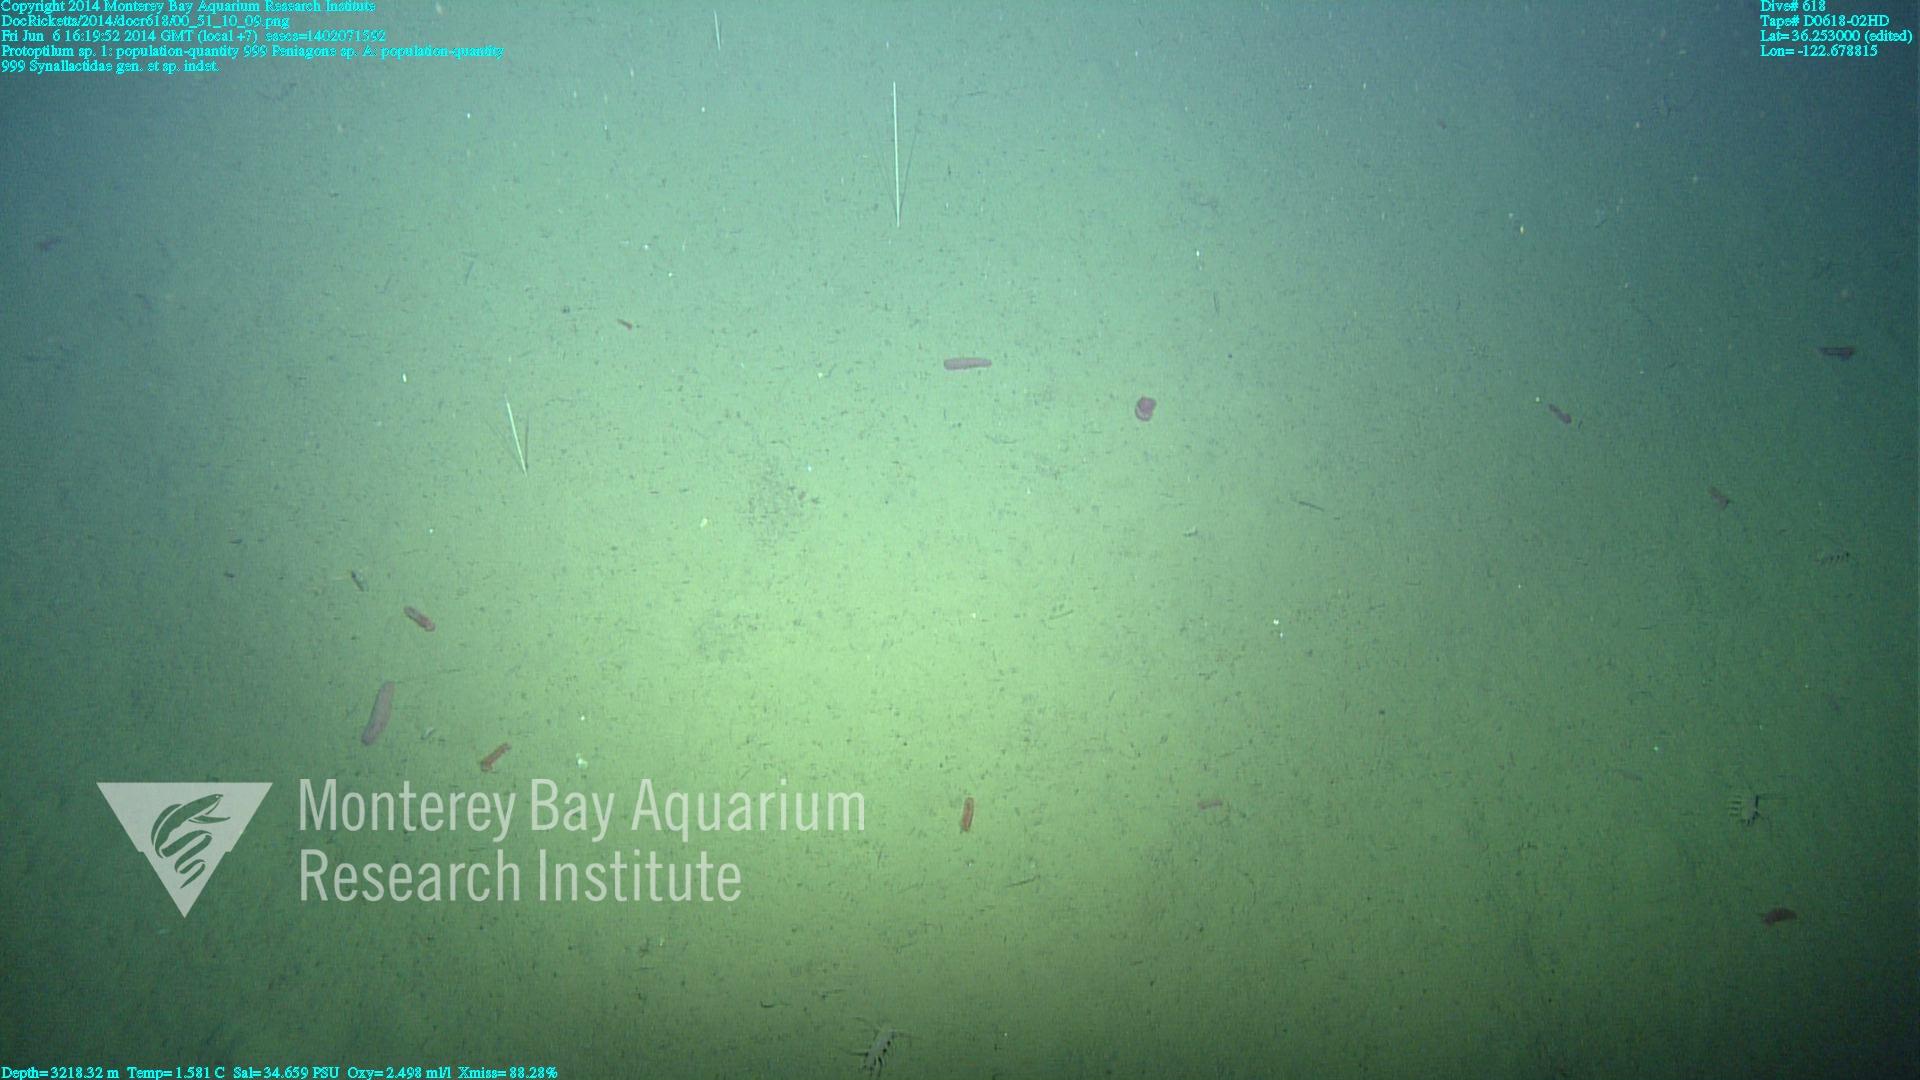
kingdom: Animalia
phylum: Cnidaria
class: Anthozoa
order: Scleralcyonacea
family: Protoptilidae
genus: Protoptilum
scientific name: Protoptilum
